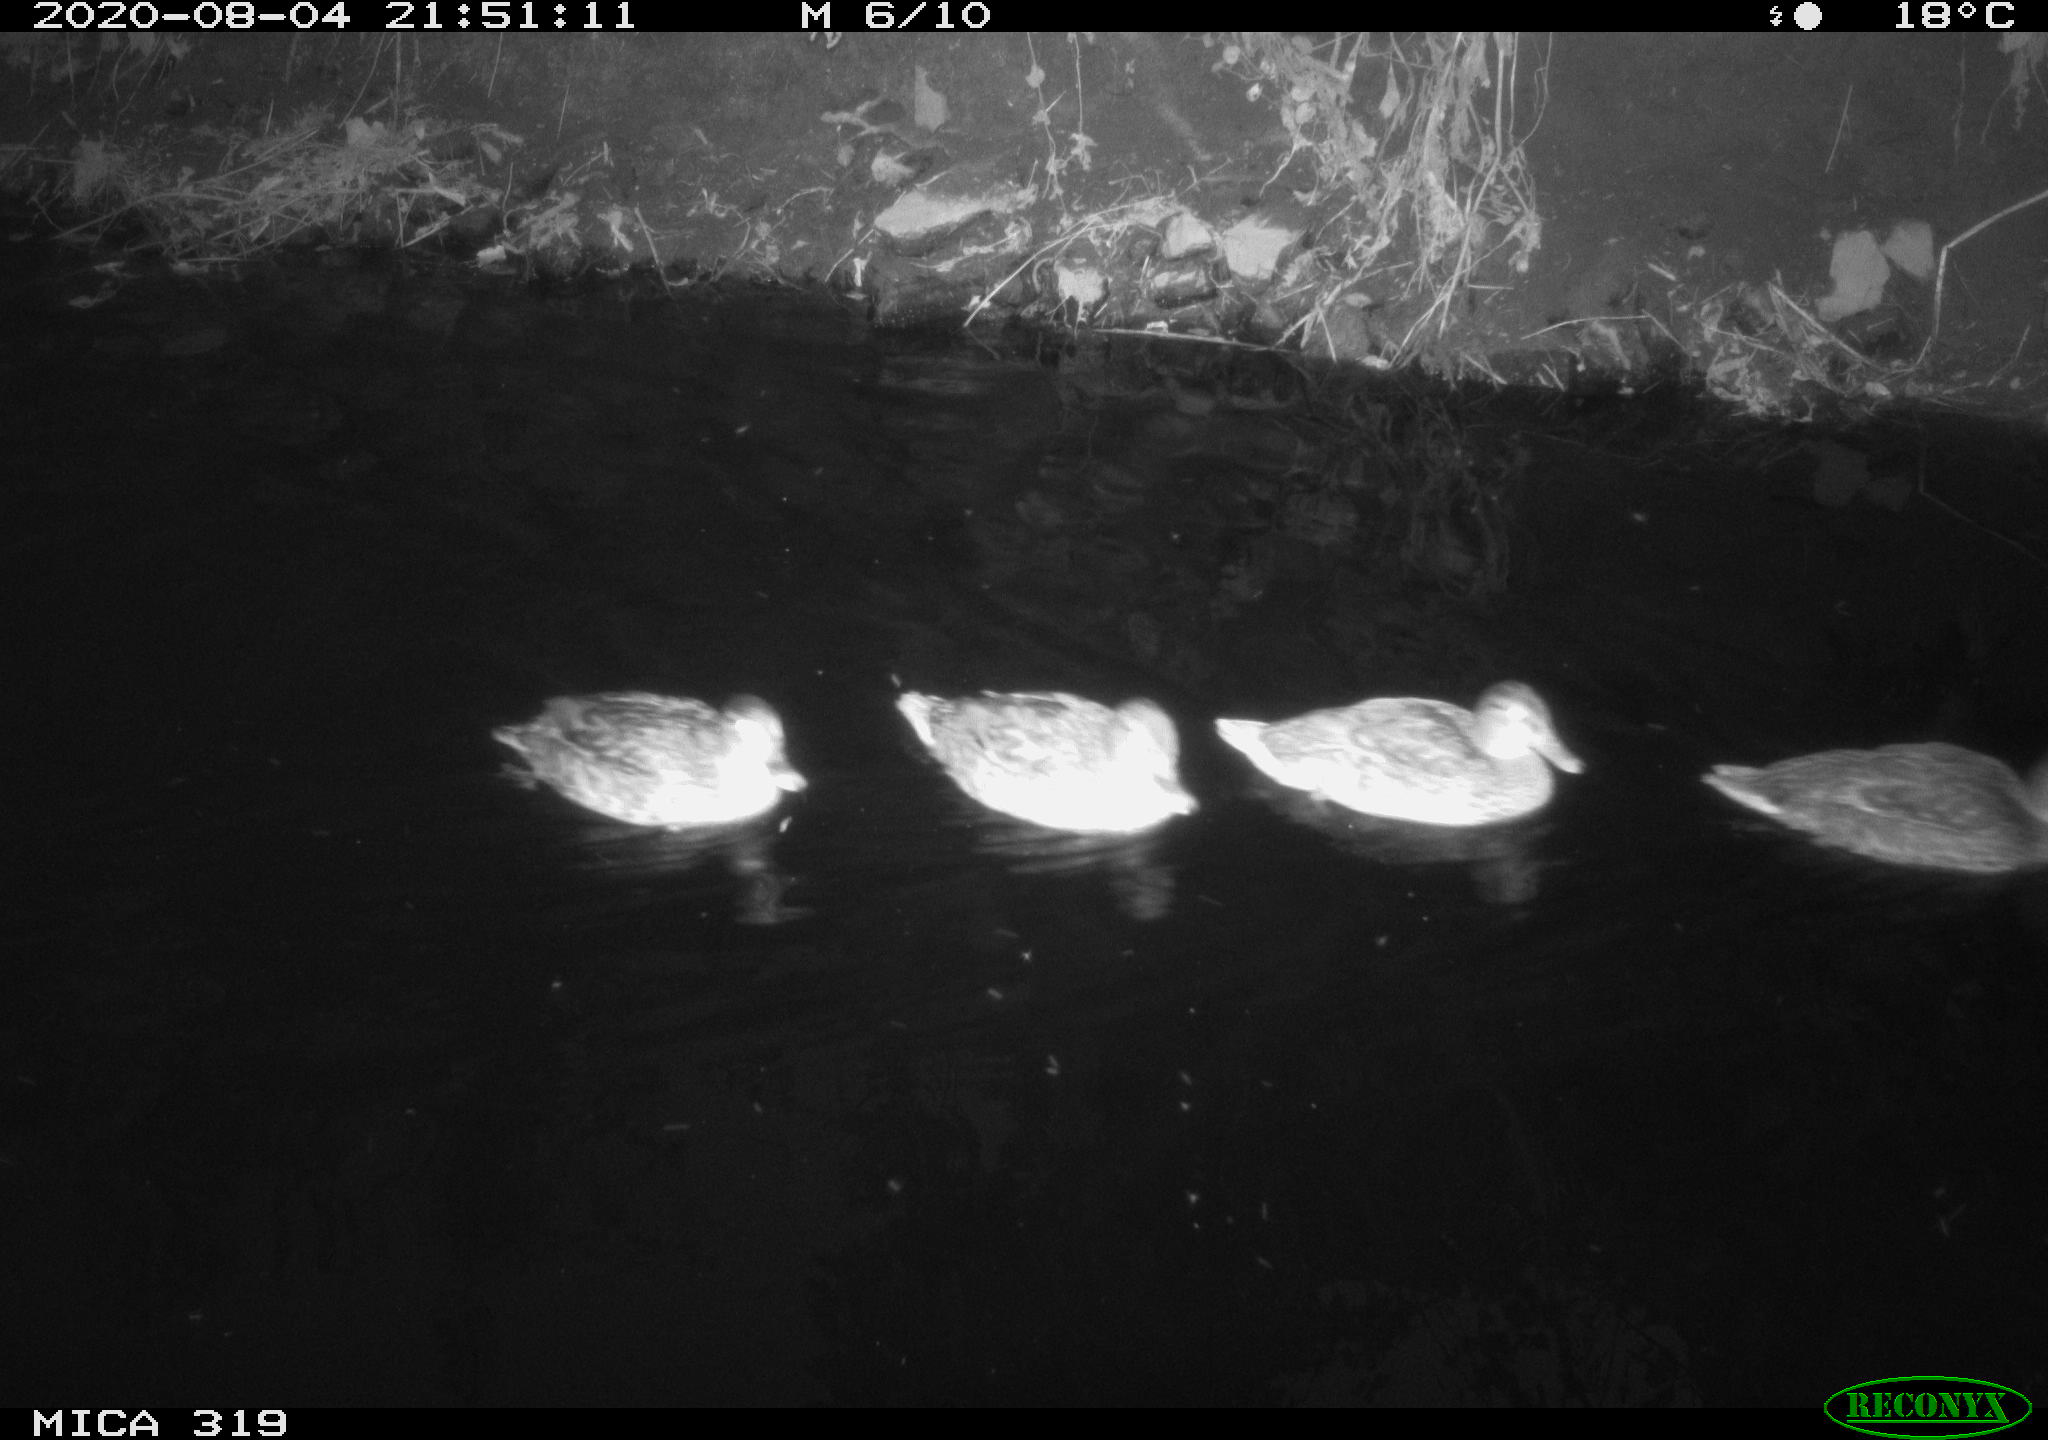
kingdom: Animalia
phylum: Chordata
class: Aves
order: Anseriformes
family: Anatidae
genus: Anas
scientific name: Anas platyrhynchos
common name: Mallard
